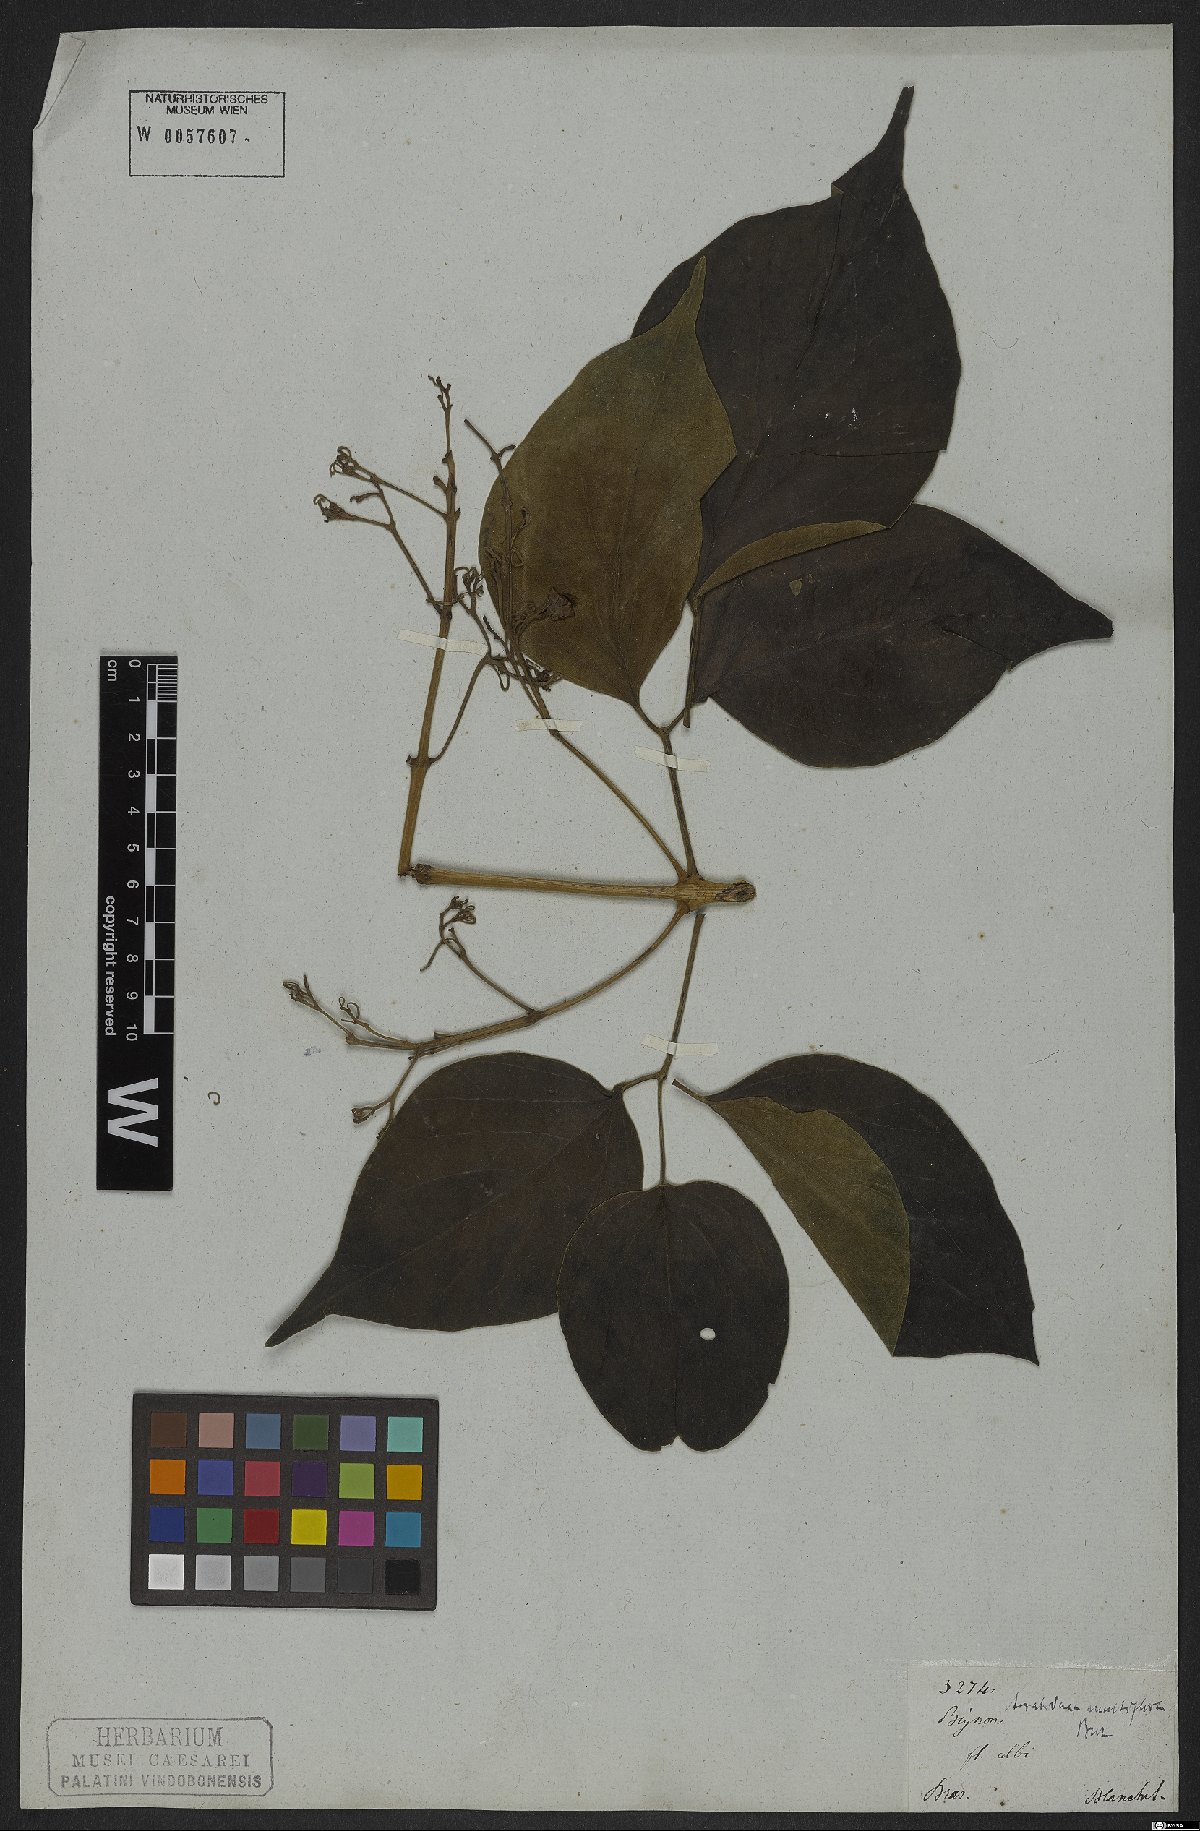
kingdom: Plantae
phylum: Tracheophyta
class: Magnoliopsida
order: Lamiales
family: Bignoniaceae
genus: Fridericia
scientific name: Fridericia Arrabidaea multiflora
